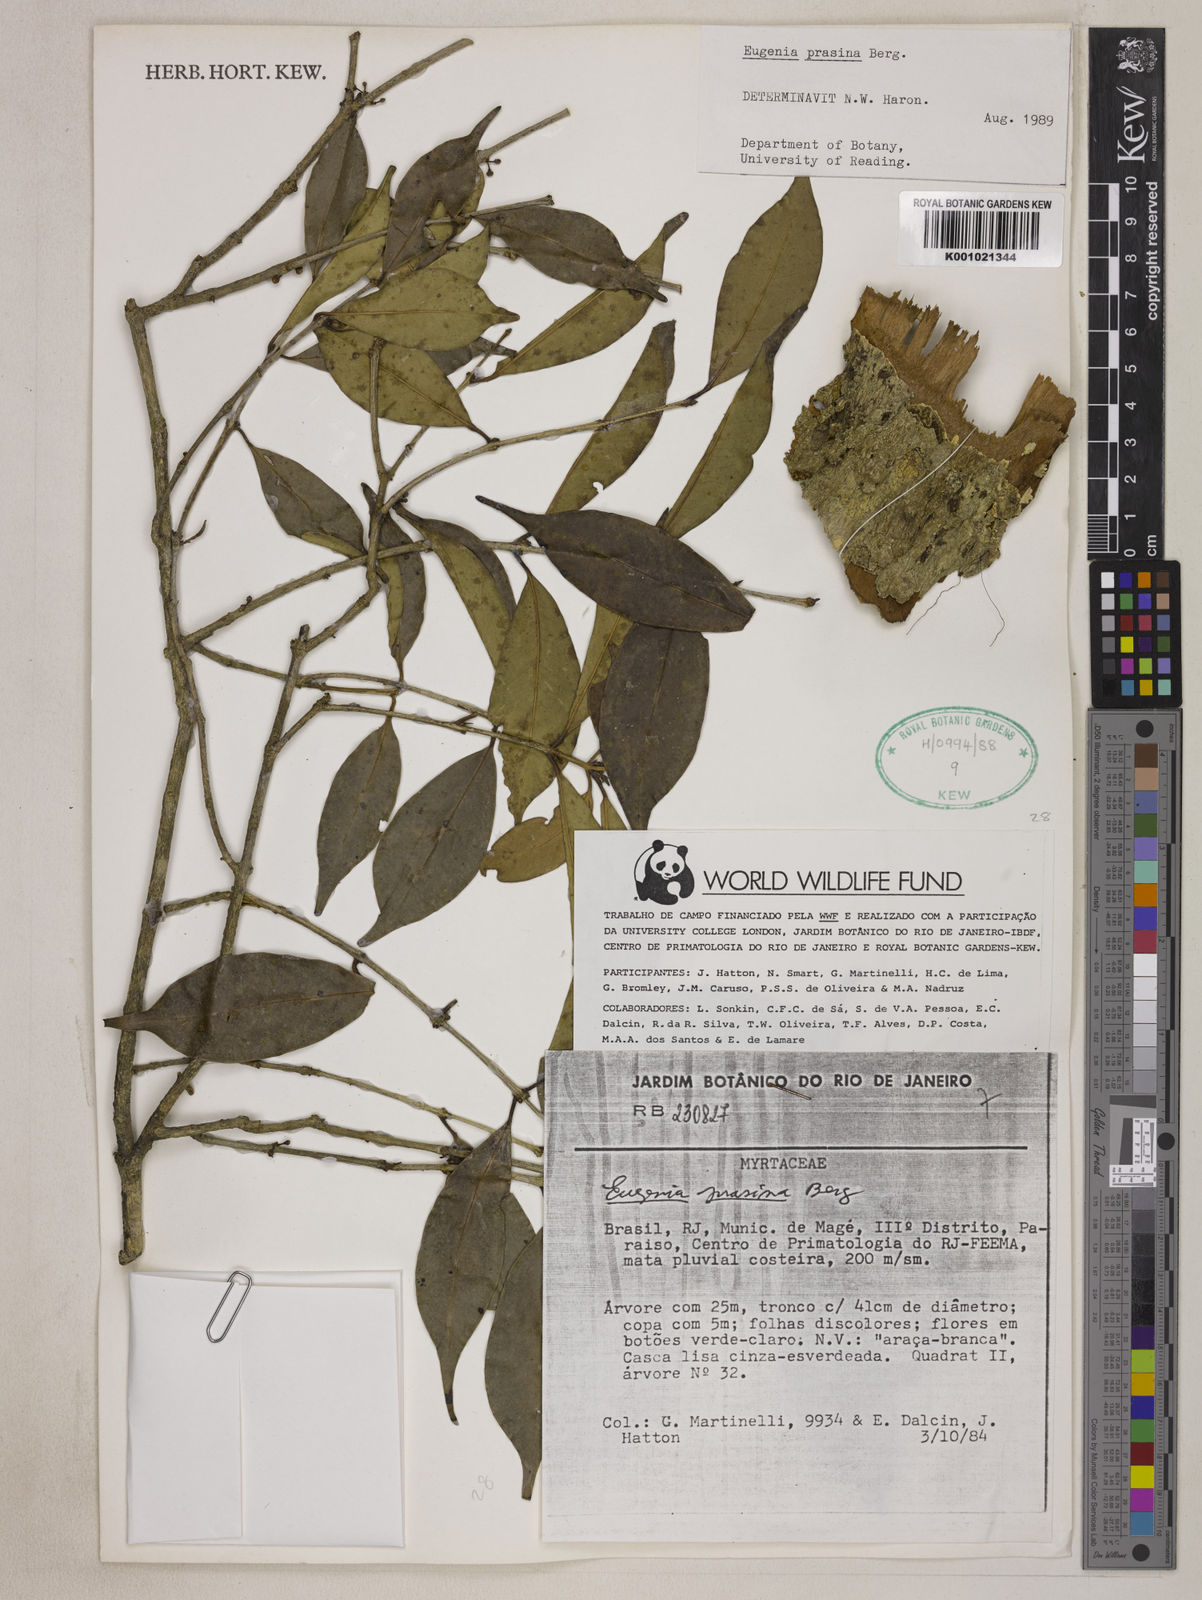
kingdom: Plantae
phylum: Tracheophyta
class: Magnoliopsida
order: Myrtales
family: Myrtaceae
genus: Eugenia
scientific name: Eugenia prasina
